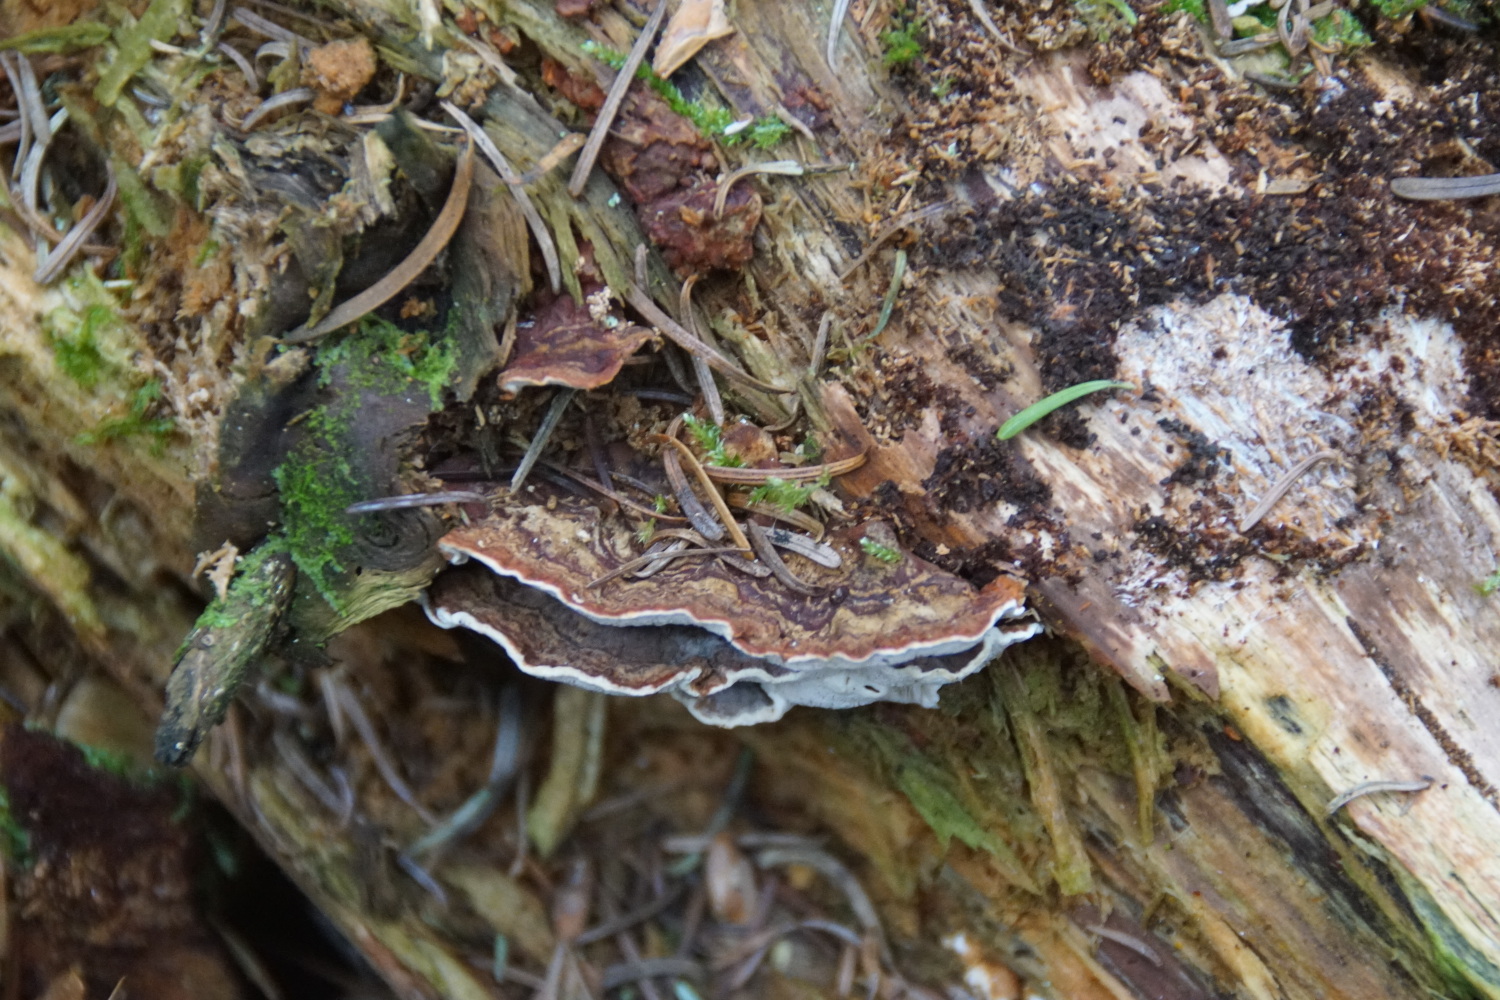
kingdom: Fungi
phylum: Basidiomycota
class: Agaricomycetes
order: Russulales
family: Bondarzewiaceae
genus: Heterobasidion
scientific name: Heterobasidion annosum
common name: almindelig rodfordærver
